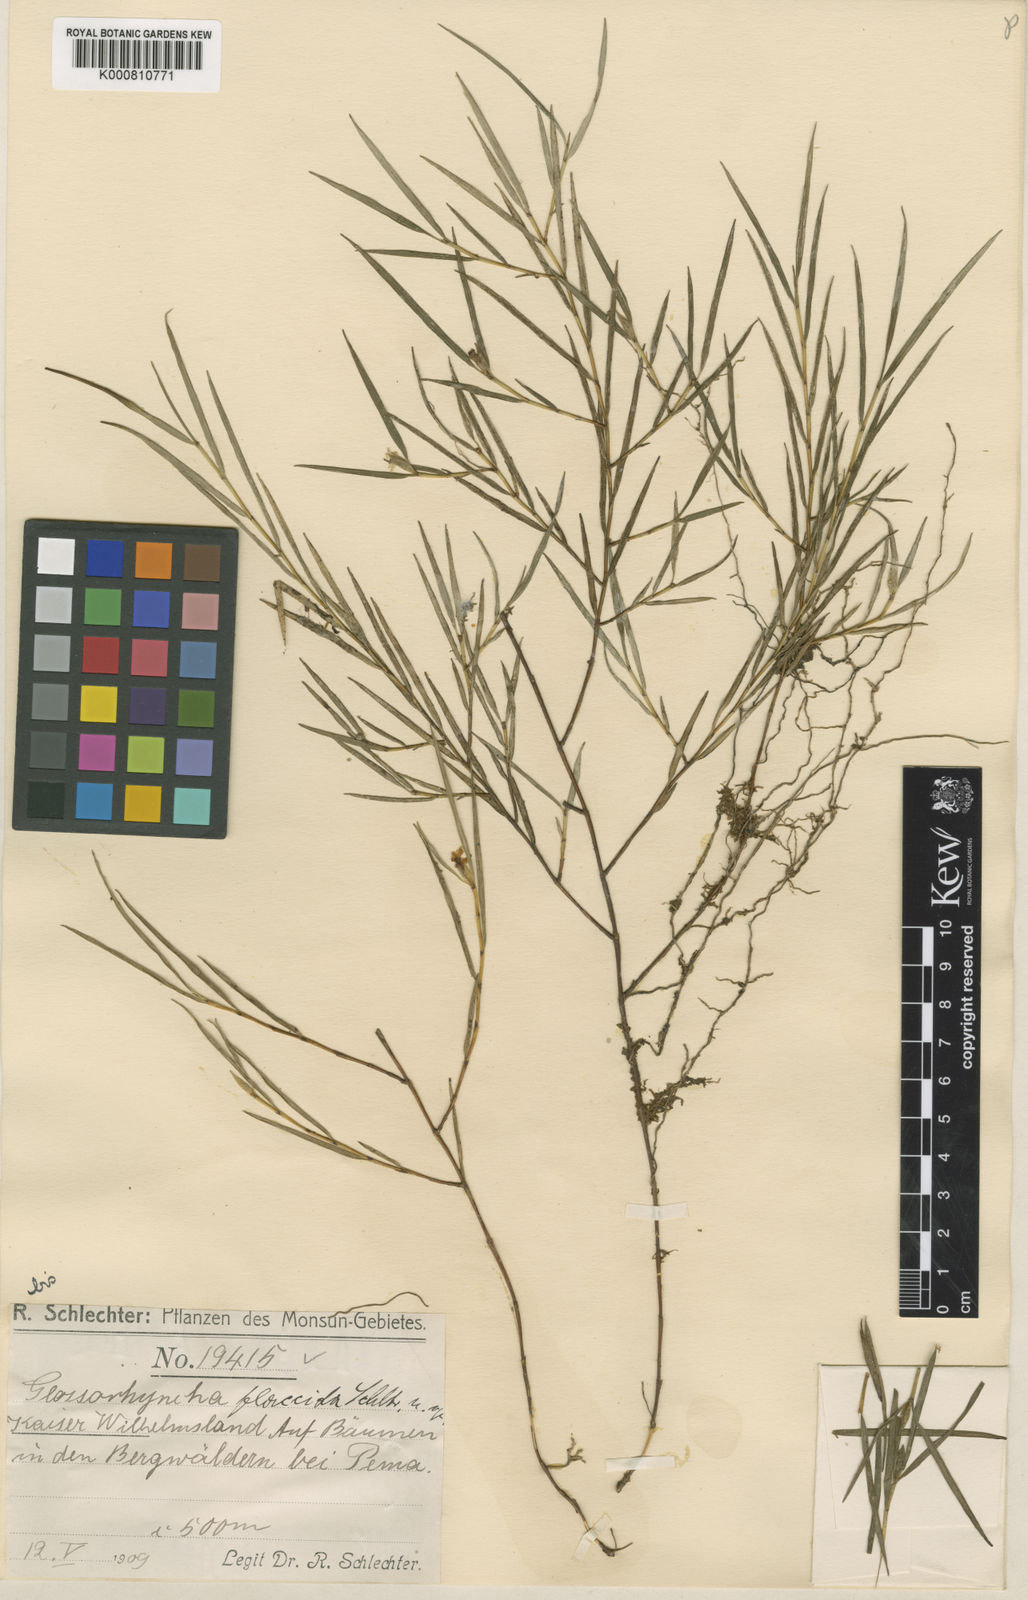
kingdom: Plantae
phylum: Tracheophyta
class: Liliopsida
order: Asparagales
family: Orchidaceae
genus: Glomera
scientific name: Glomera flaccida
